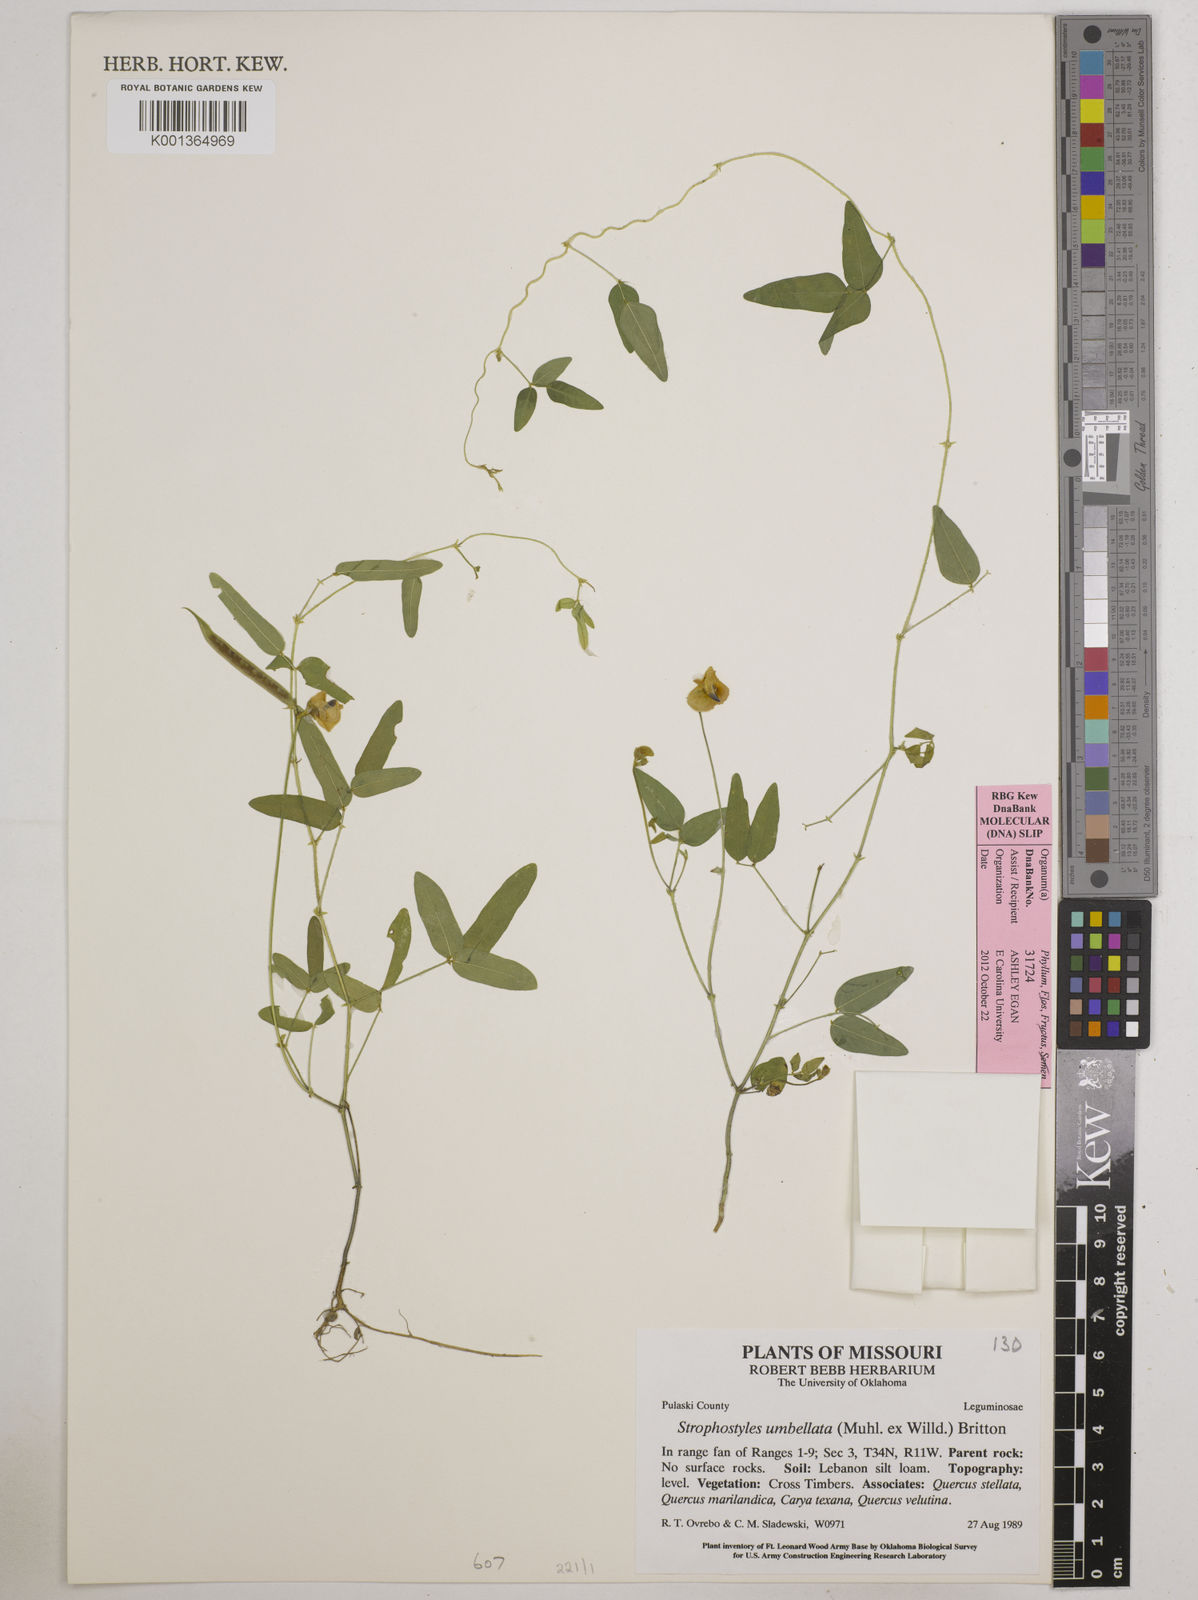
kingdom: Plantae
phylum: Tracheophyta
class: Magnoliopsida
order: Fabales
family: Fabaceae
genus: Strophostyles
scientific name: Strophostyles umbellata
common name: Perennial wild bean
